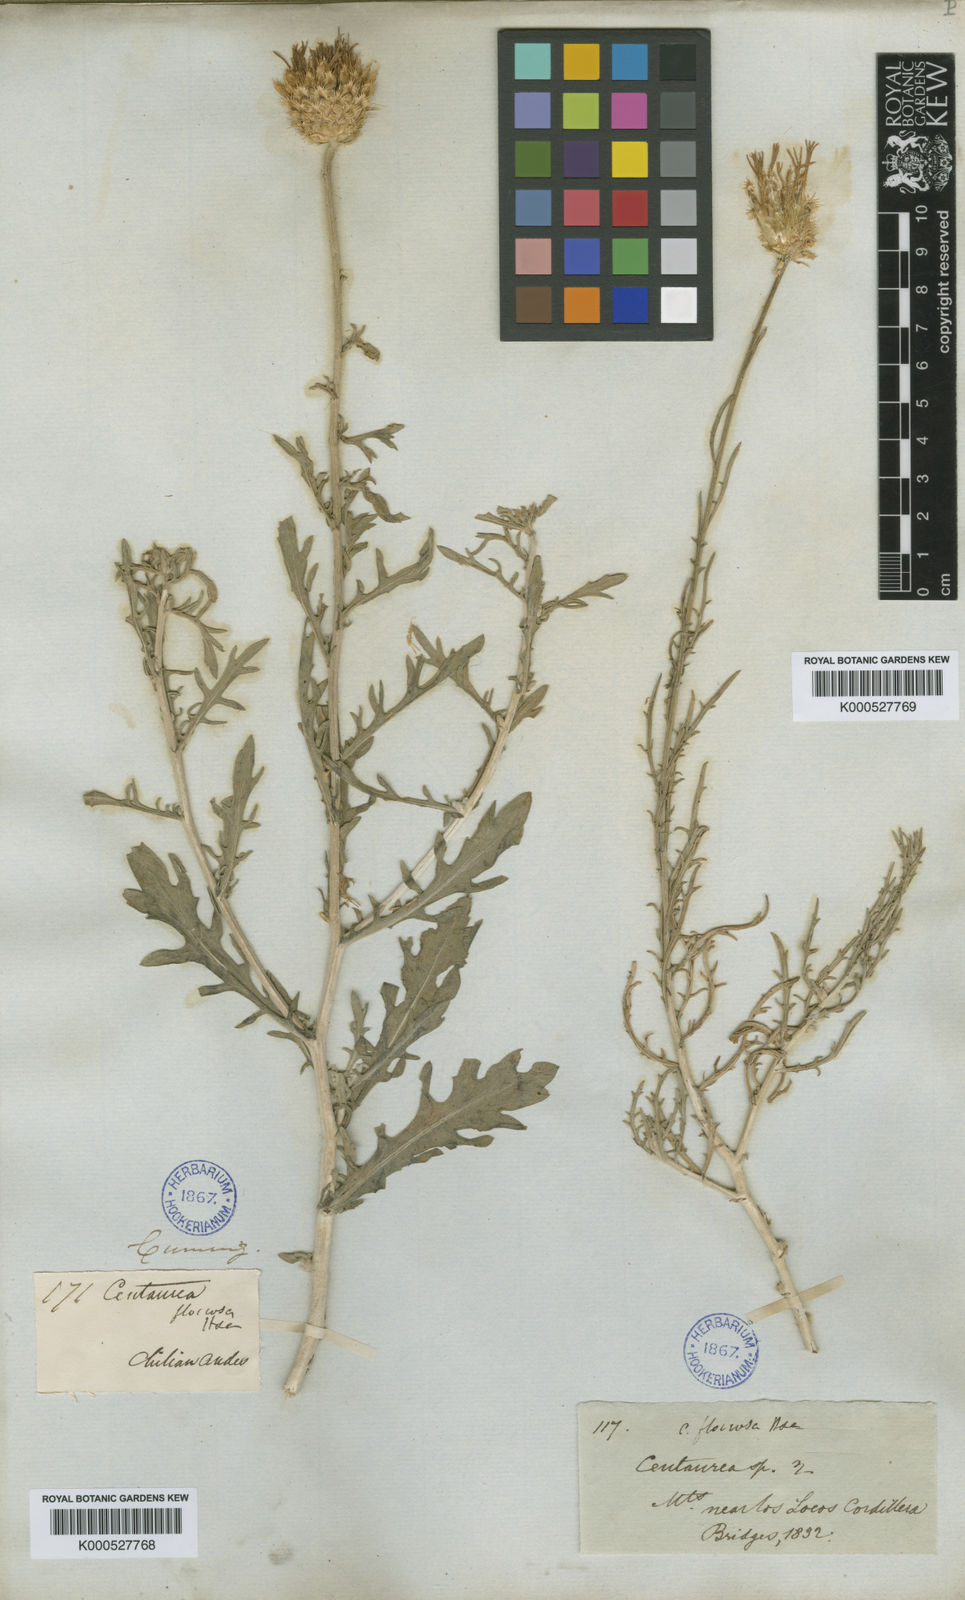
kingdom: Plantae
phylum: Tracheophyta
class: Magnoliopsida
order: Asterales
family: Asteraceae
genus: Plectocephalus
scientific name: Plectocephalus floccosus
